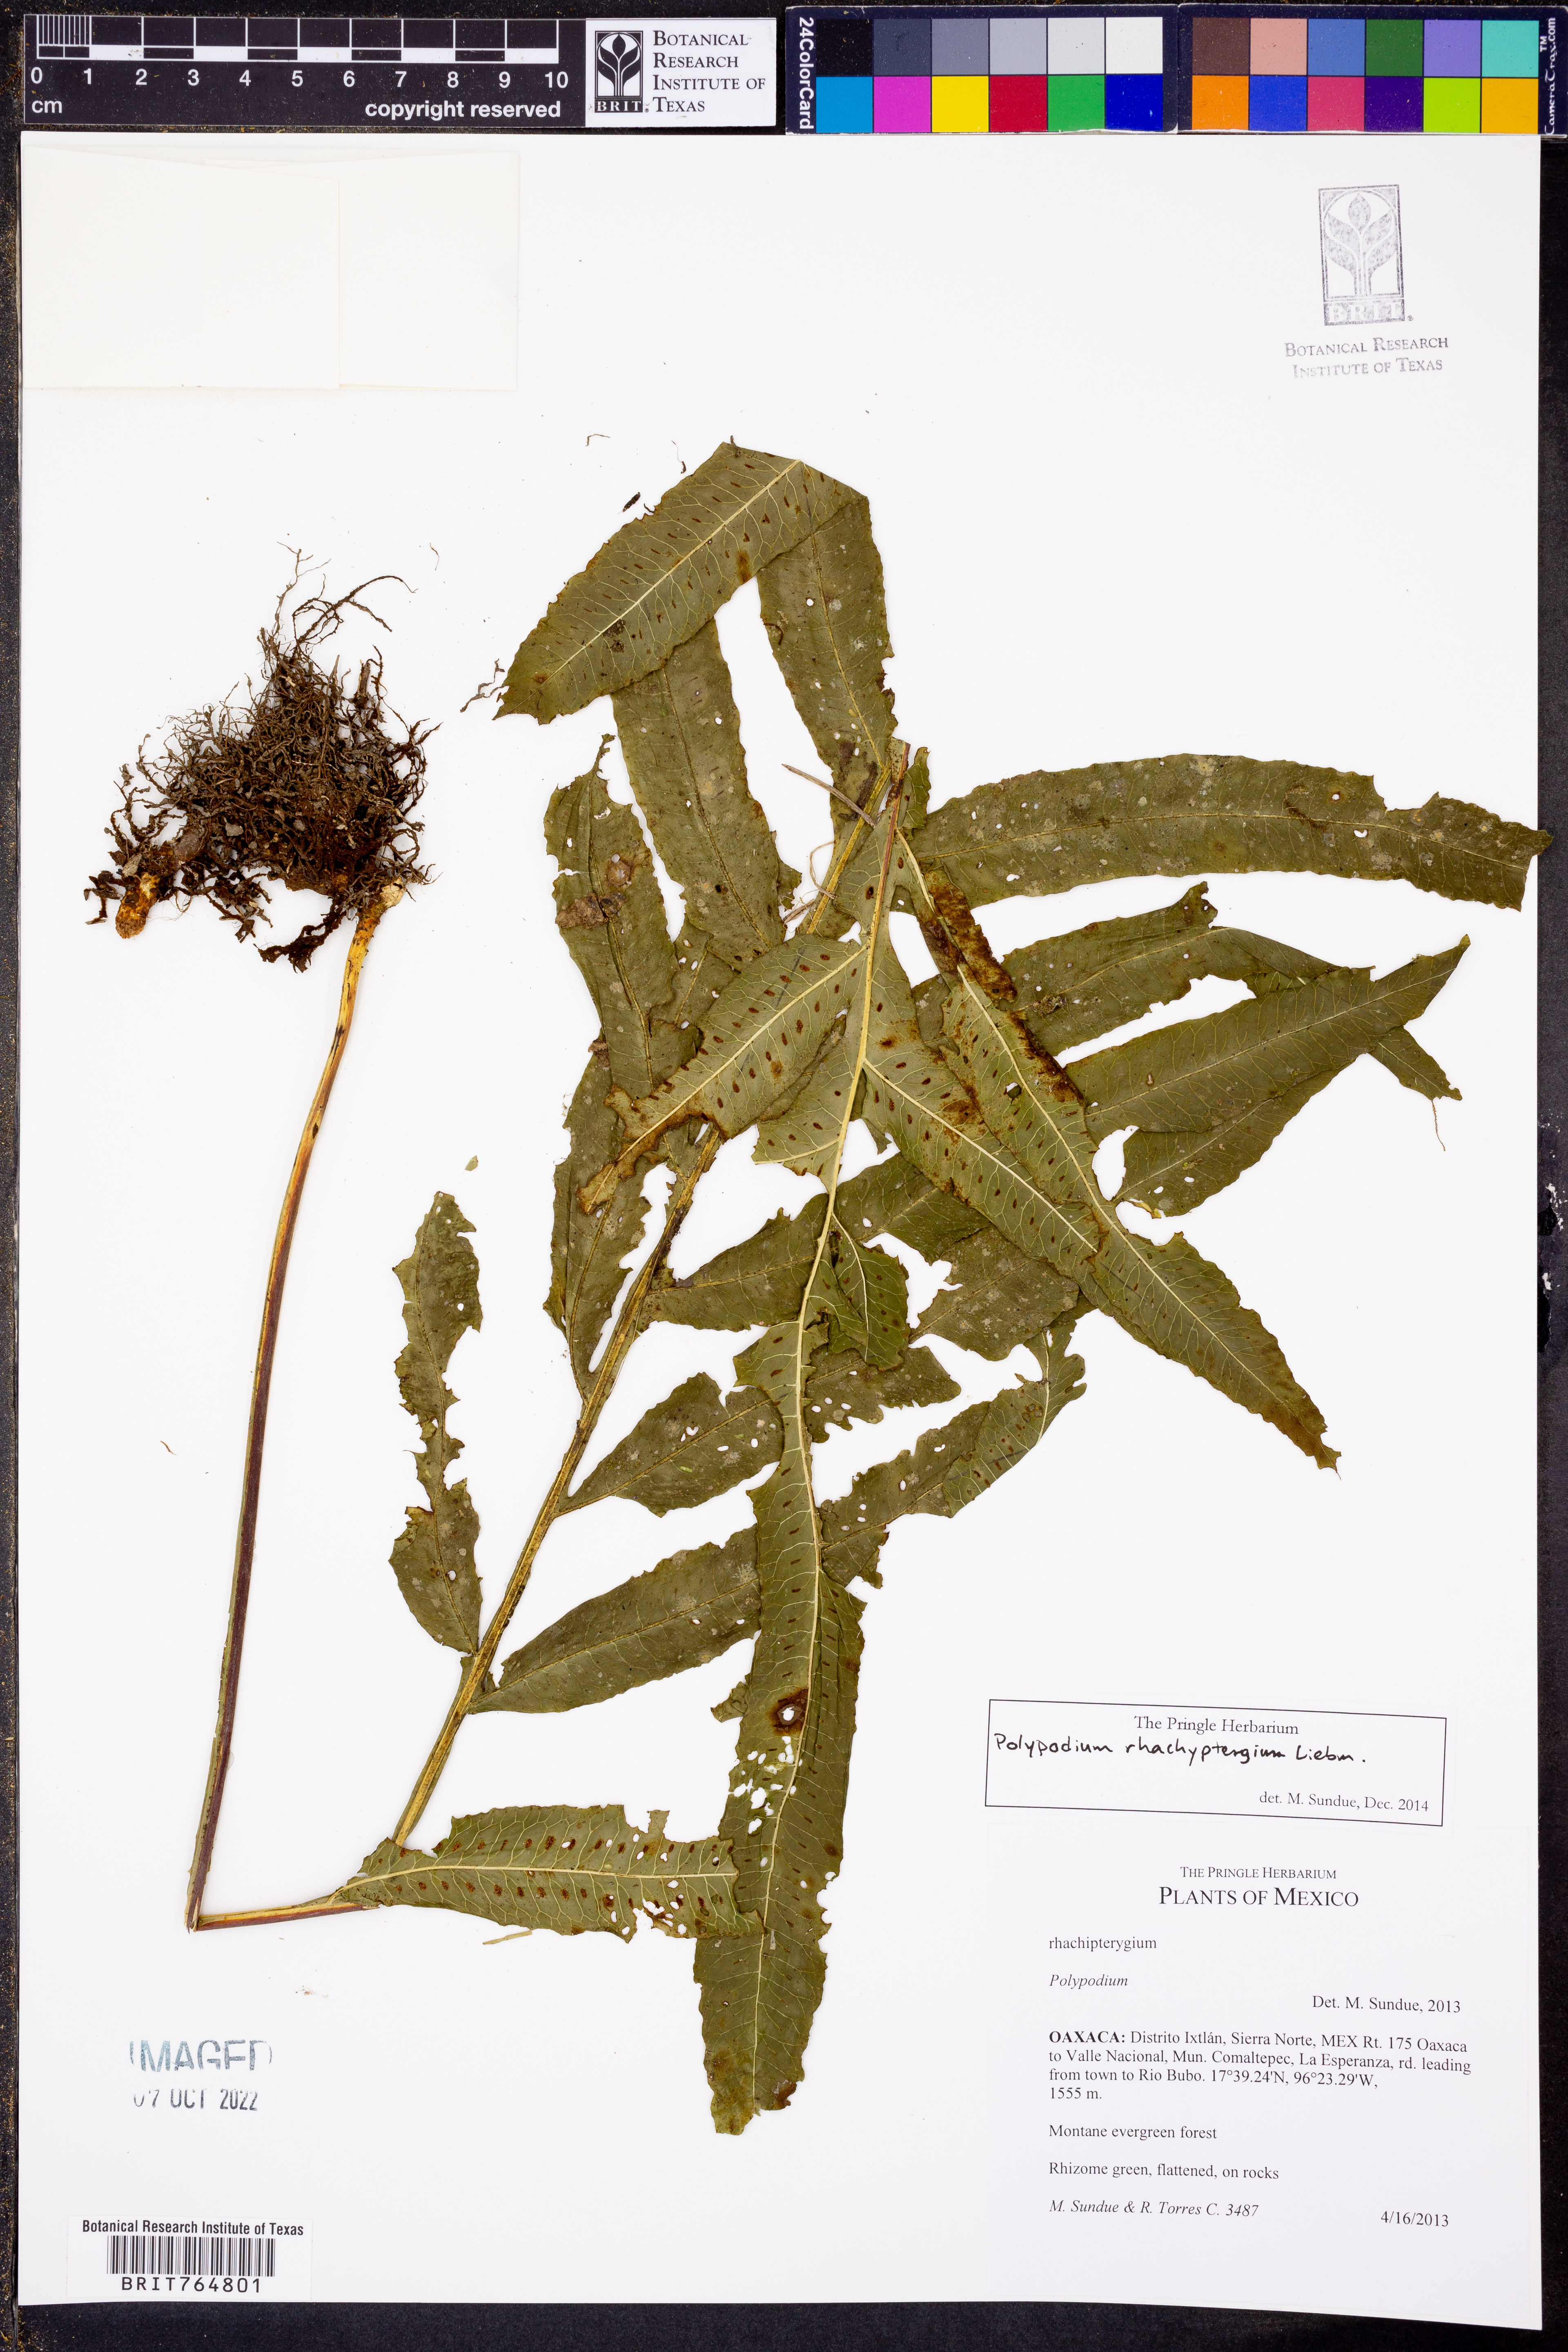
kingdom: Plantae
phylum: Tracheophyta
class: Polypodiopsida
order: Polypodiales
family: Polypodiaceae
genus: Pecluma
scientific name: Pecluma rhachipterygia
